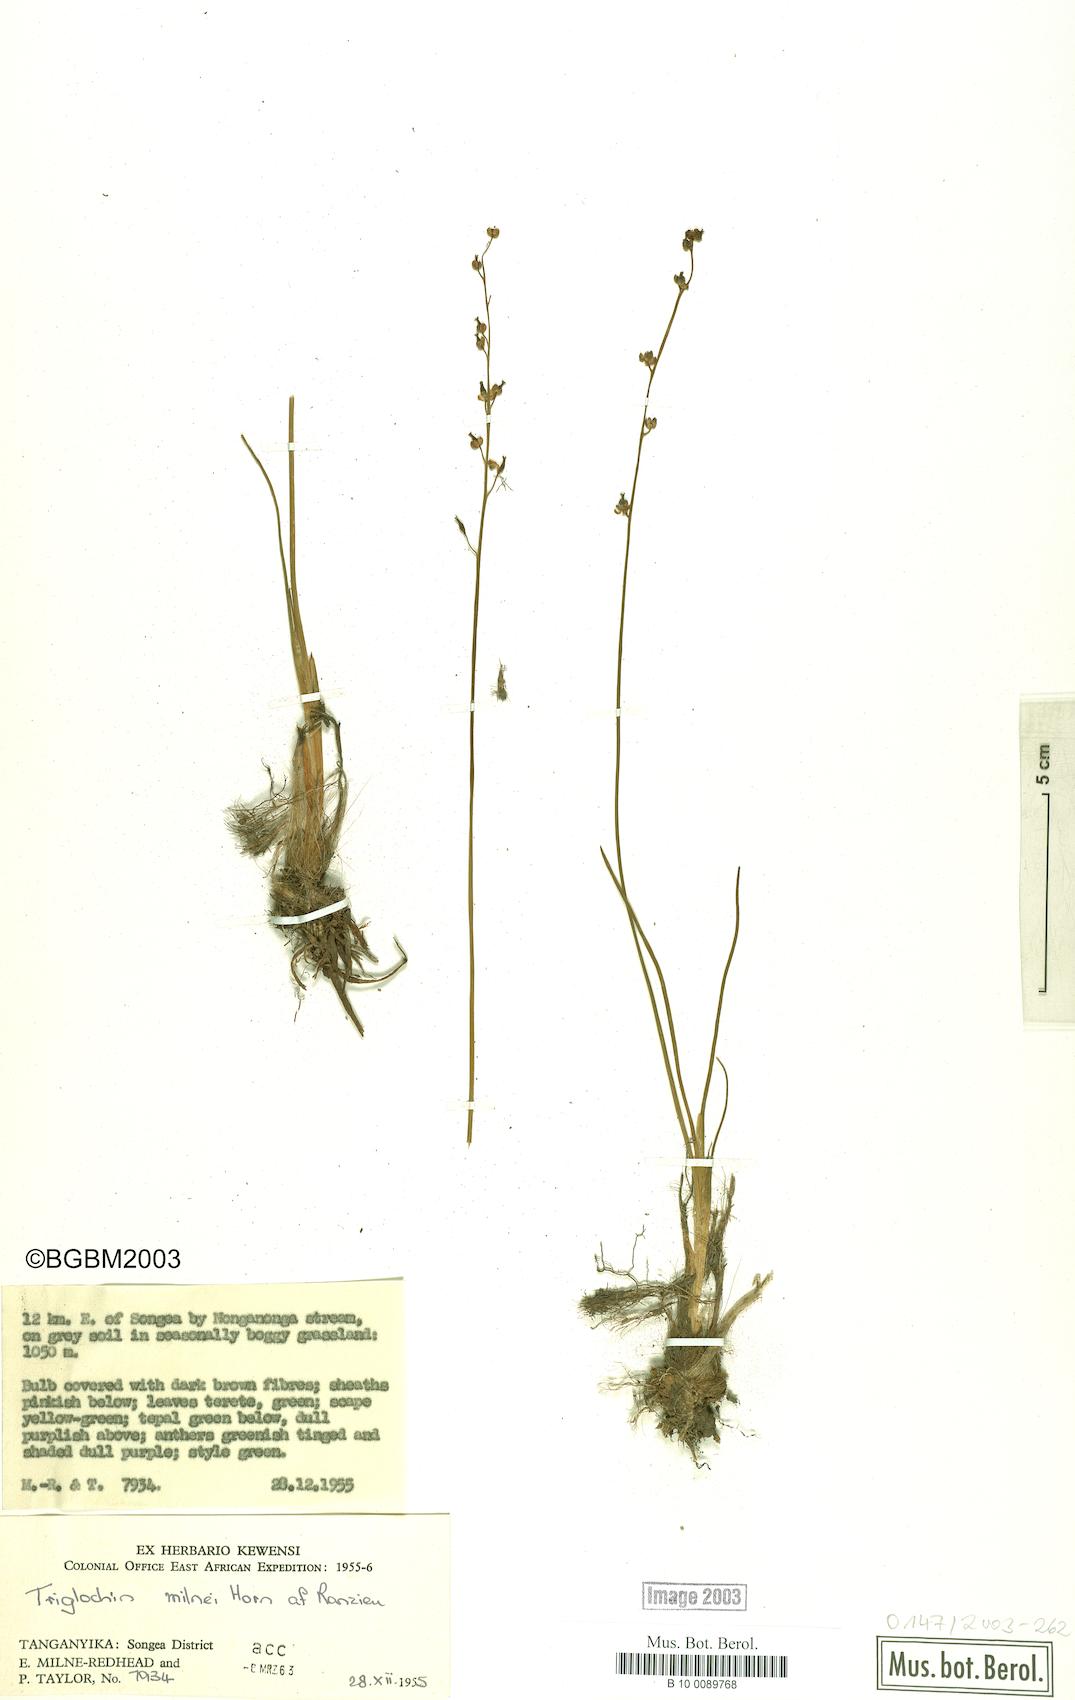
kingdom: Plantae
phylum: Tracheophyta
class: Liliopsida
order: Alismatales
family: Juncaginaceae
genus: Triglochin
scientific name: Triglochin milnei
